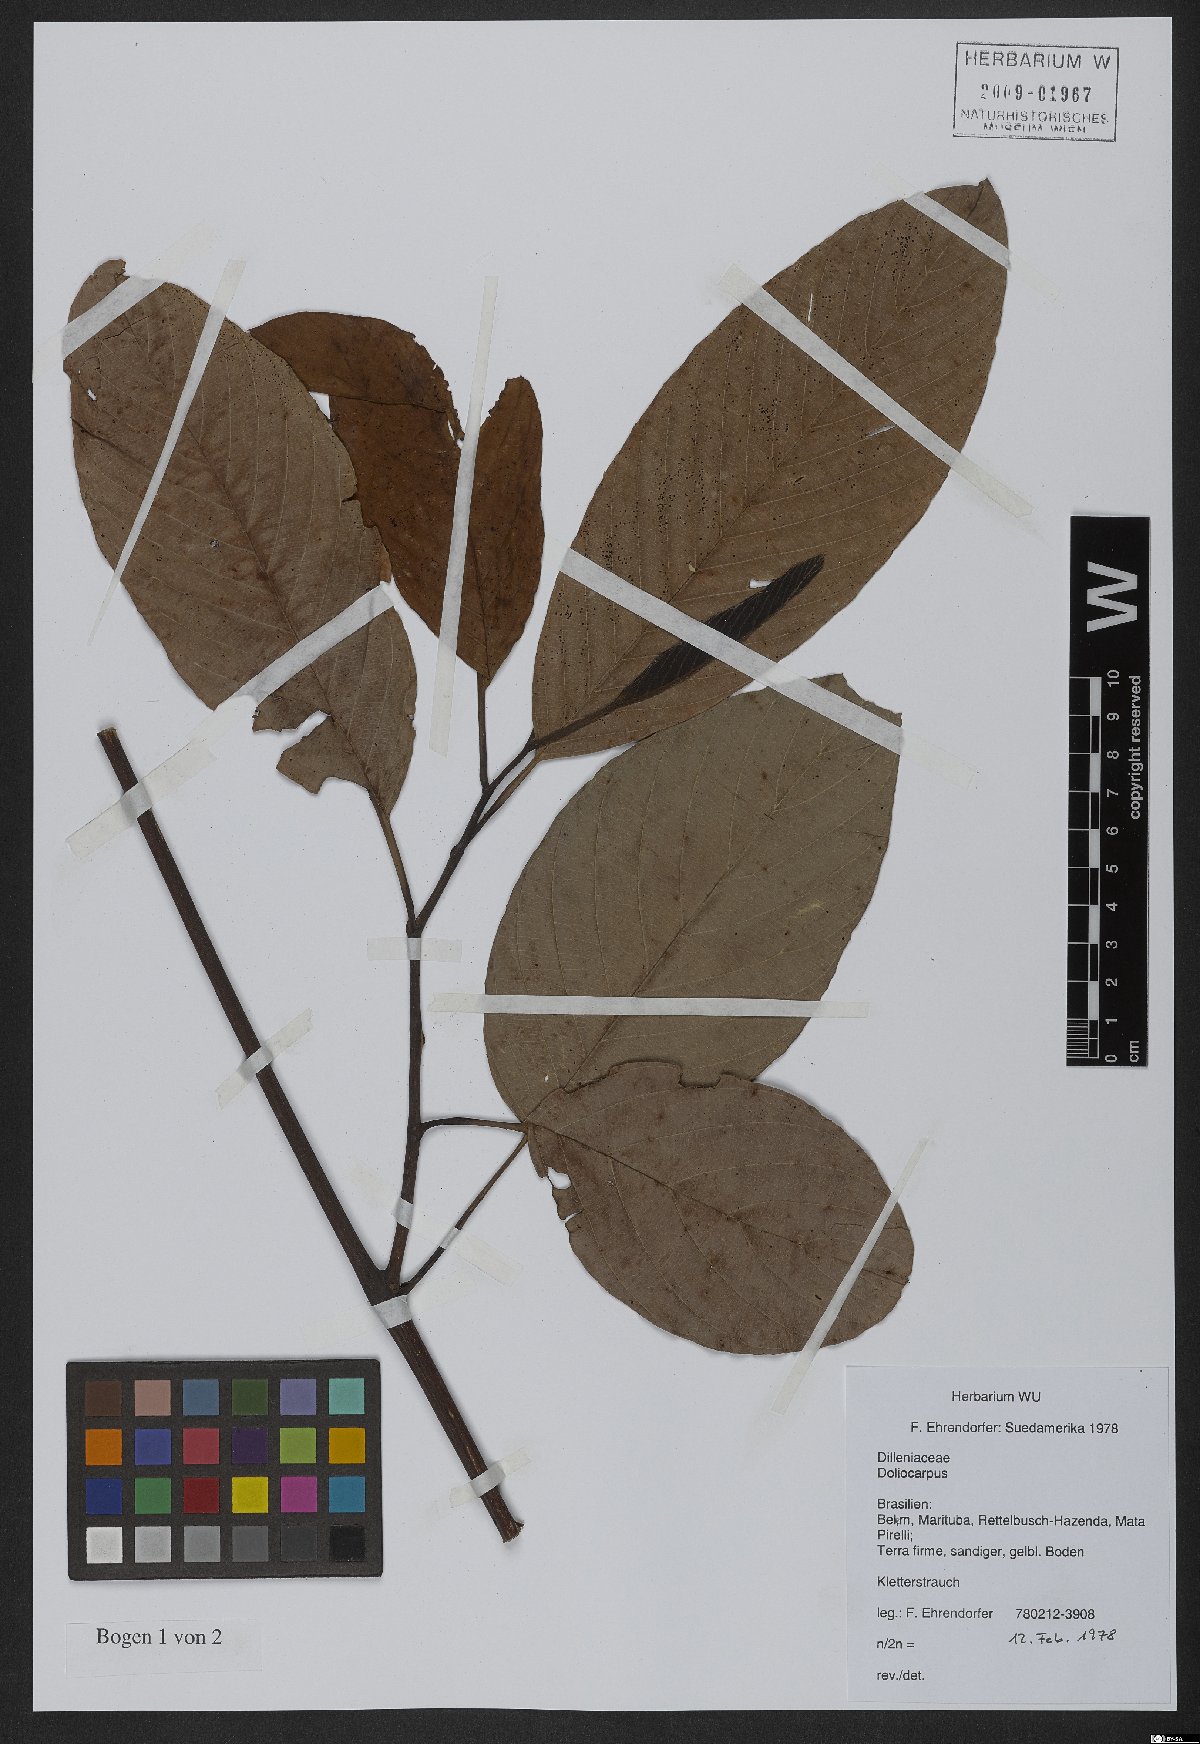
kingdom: Plantae
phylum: Tracheophyta
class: Magnoliopsida
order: Dilleniales
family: Dilleniaceae
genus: Doliocarpus
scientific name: Doliocarpus
